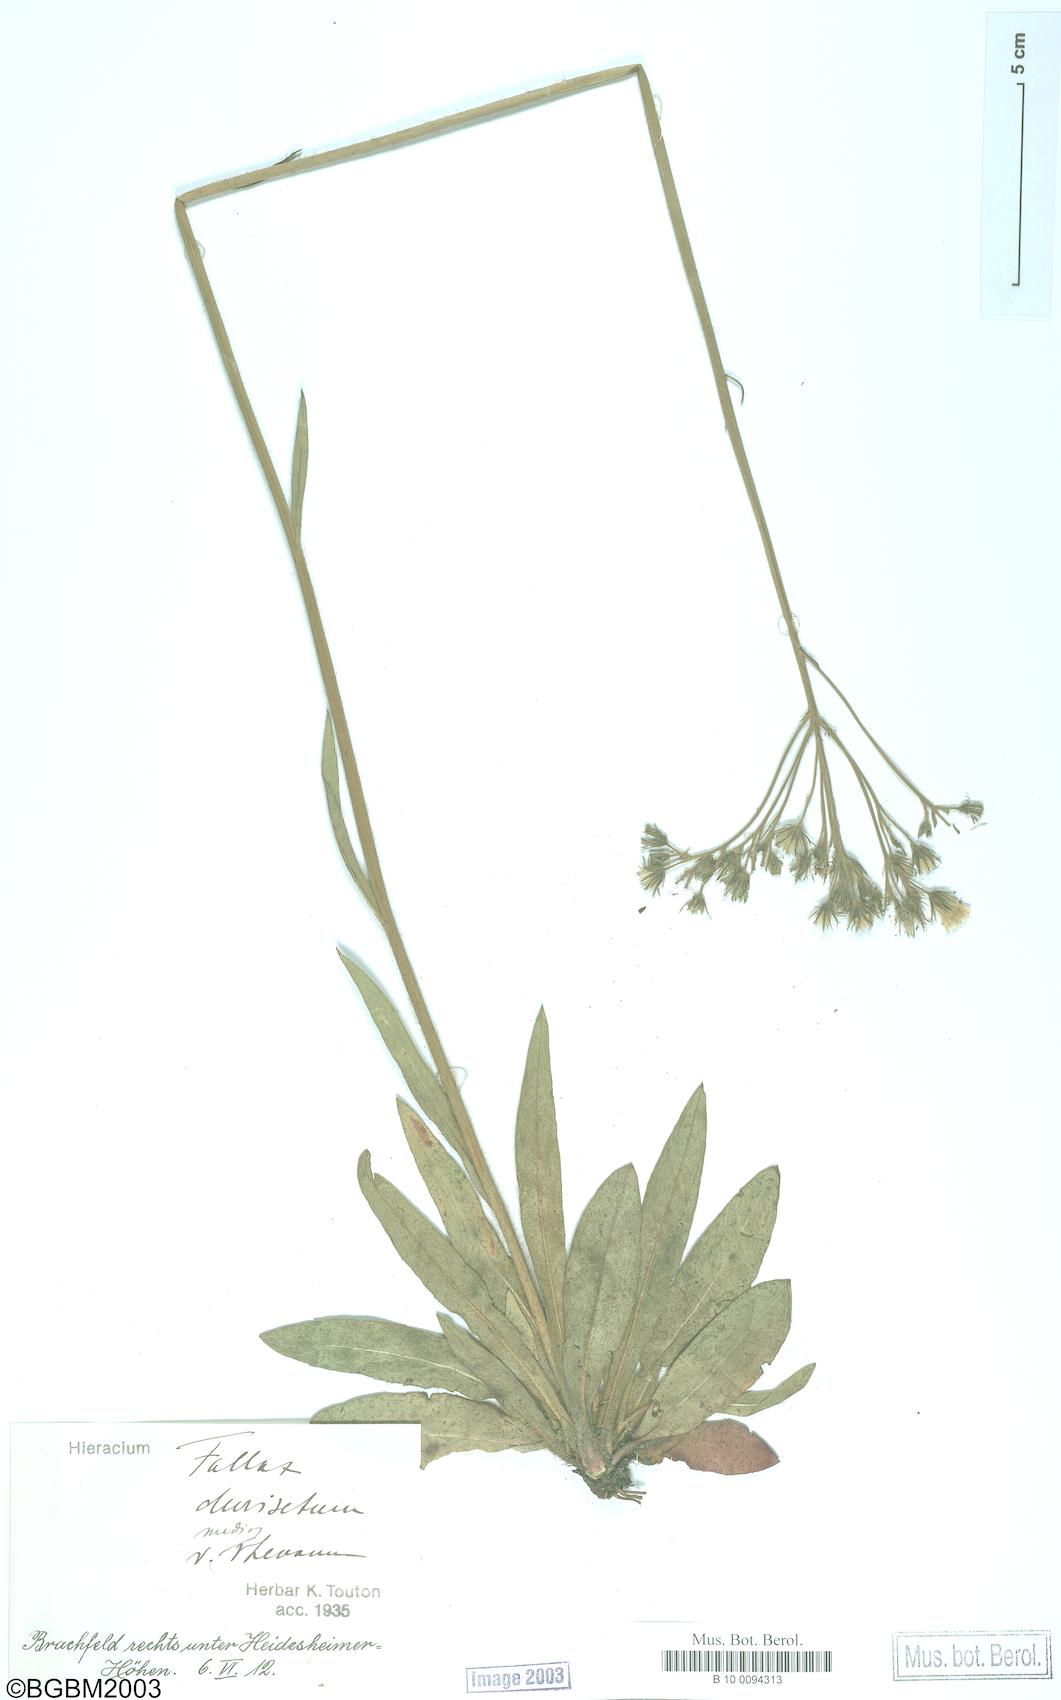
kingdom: Plantae
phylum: Tracheophyta
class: Magnoliopsida
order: Asterales
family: Asteraceae
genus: Hieracium
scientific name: Hieracium fallax
